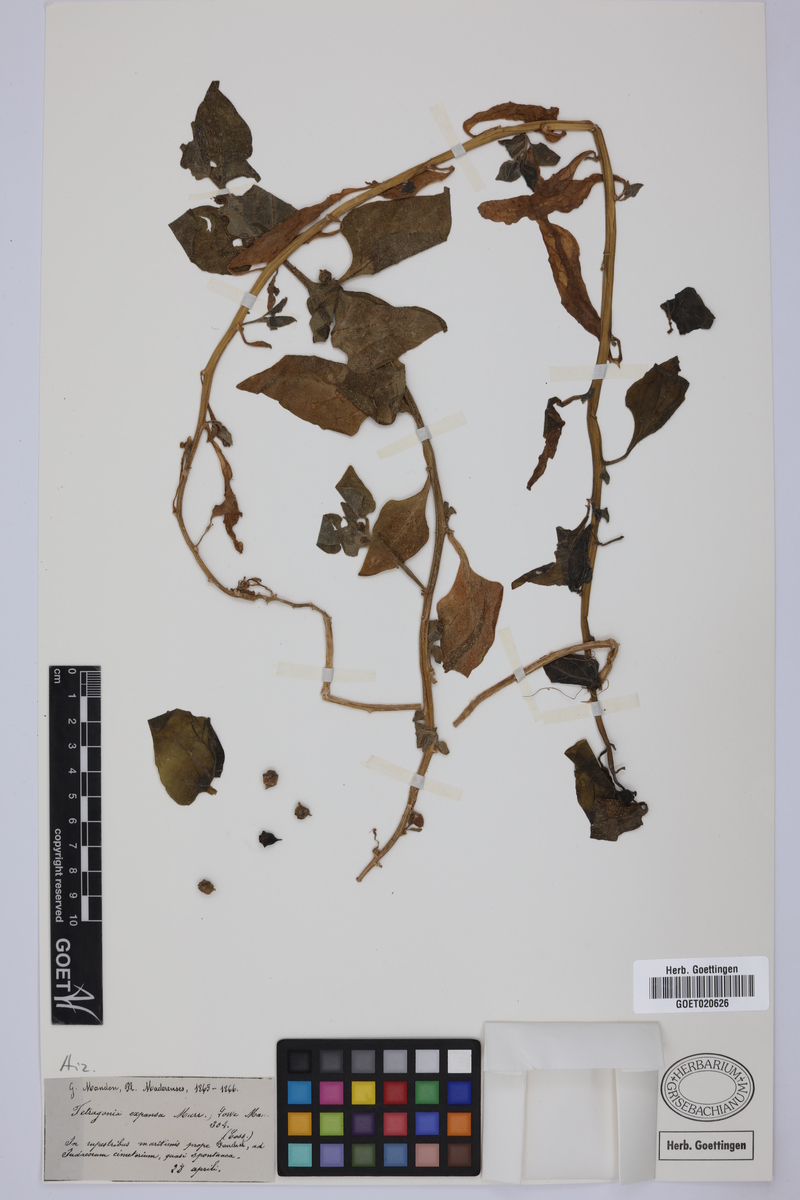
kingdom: Plantae
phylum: Tracheophyta
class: Magnoliopsida
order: Caryophyllales
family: Aizoaceae
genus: Tetragonia
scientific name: Tetragonia tetragonoides
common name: New zealand-spinach
